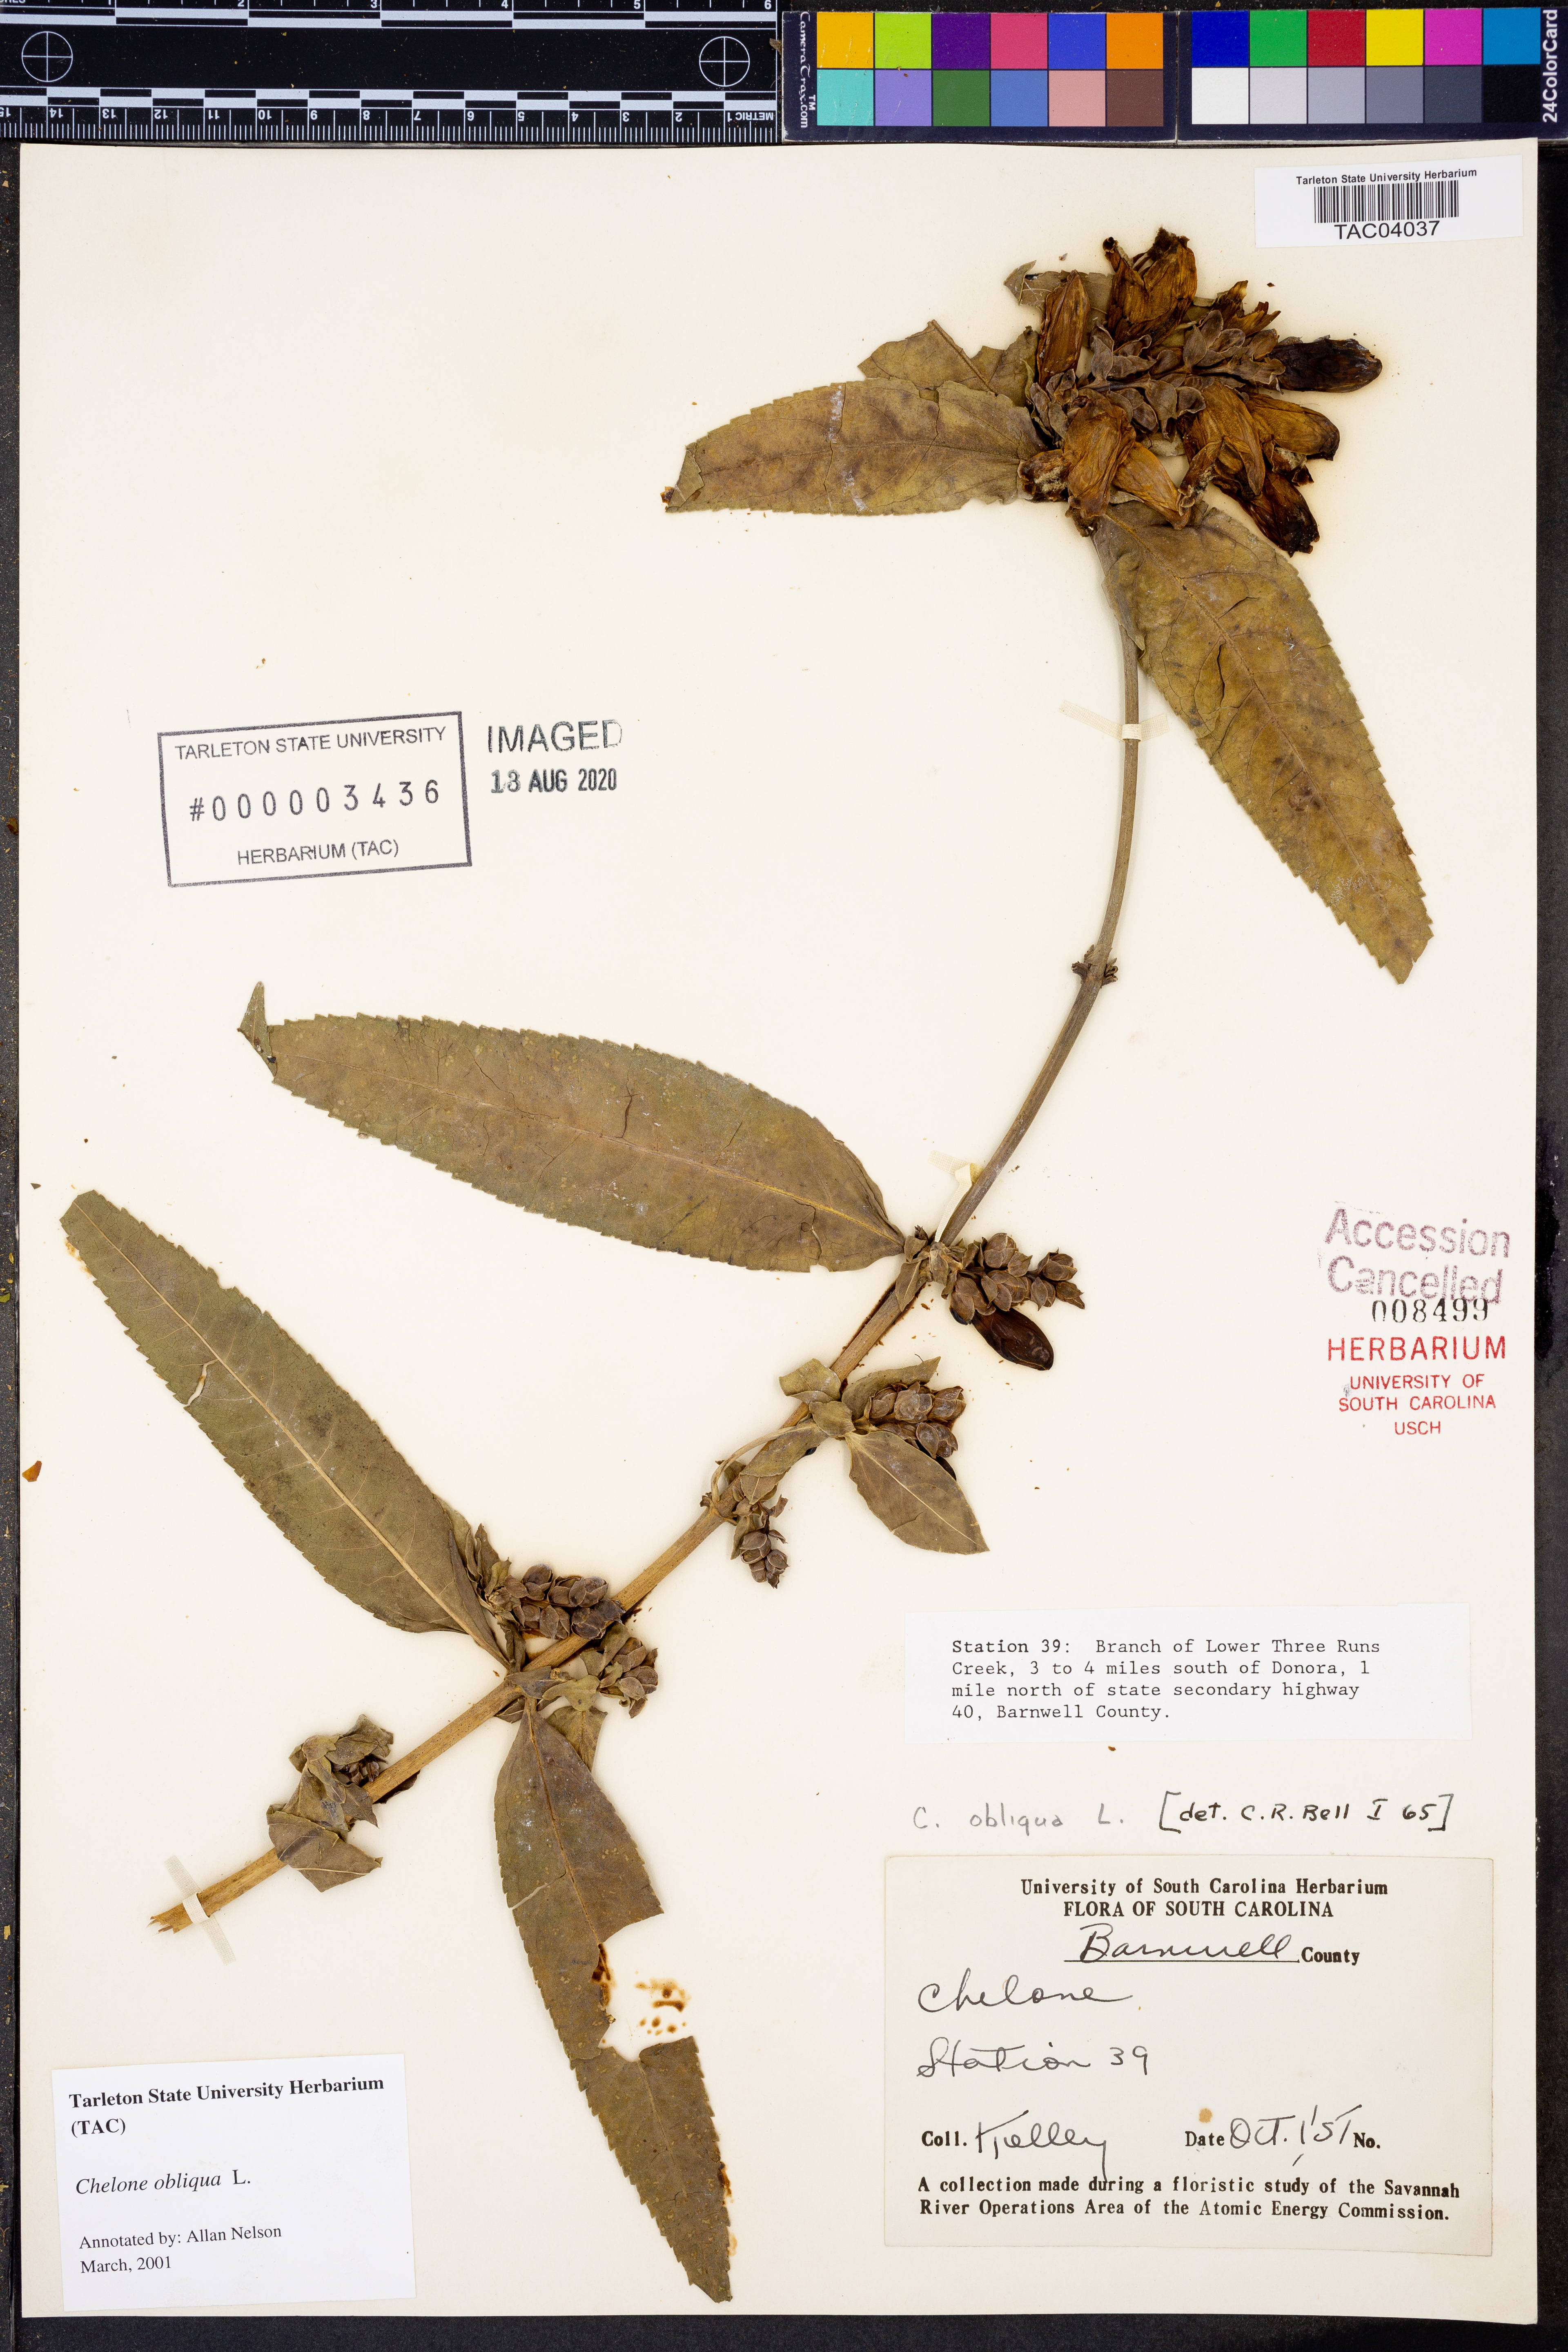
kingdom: Plantae
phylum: Tracheophyta
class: Magnoliopsida
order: Lamiales
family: Plantaginaceae
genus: Chelone
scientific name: Chelone obliqua
